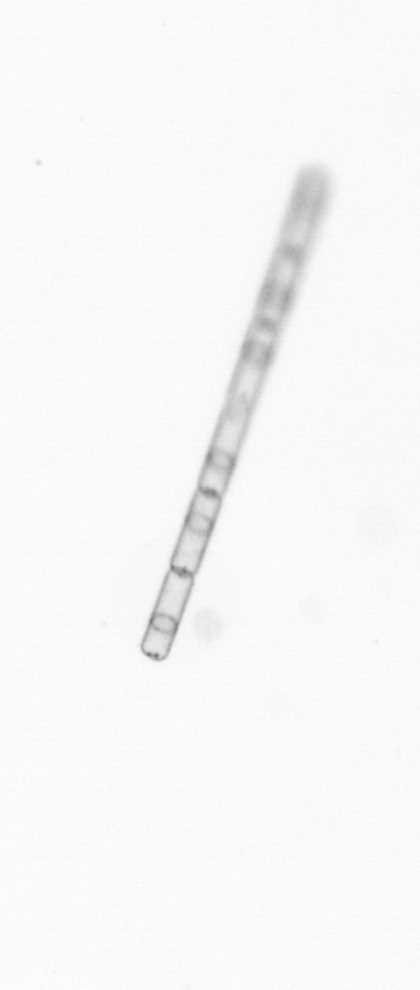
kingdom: Chromista
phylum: Ochrophyta
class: Bacillariophyceae
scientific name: Bacillariophyceae
